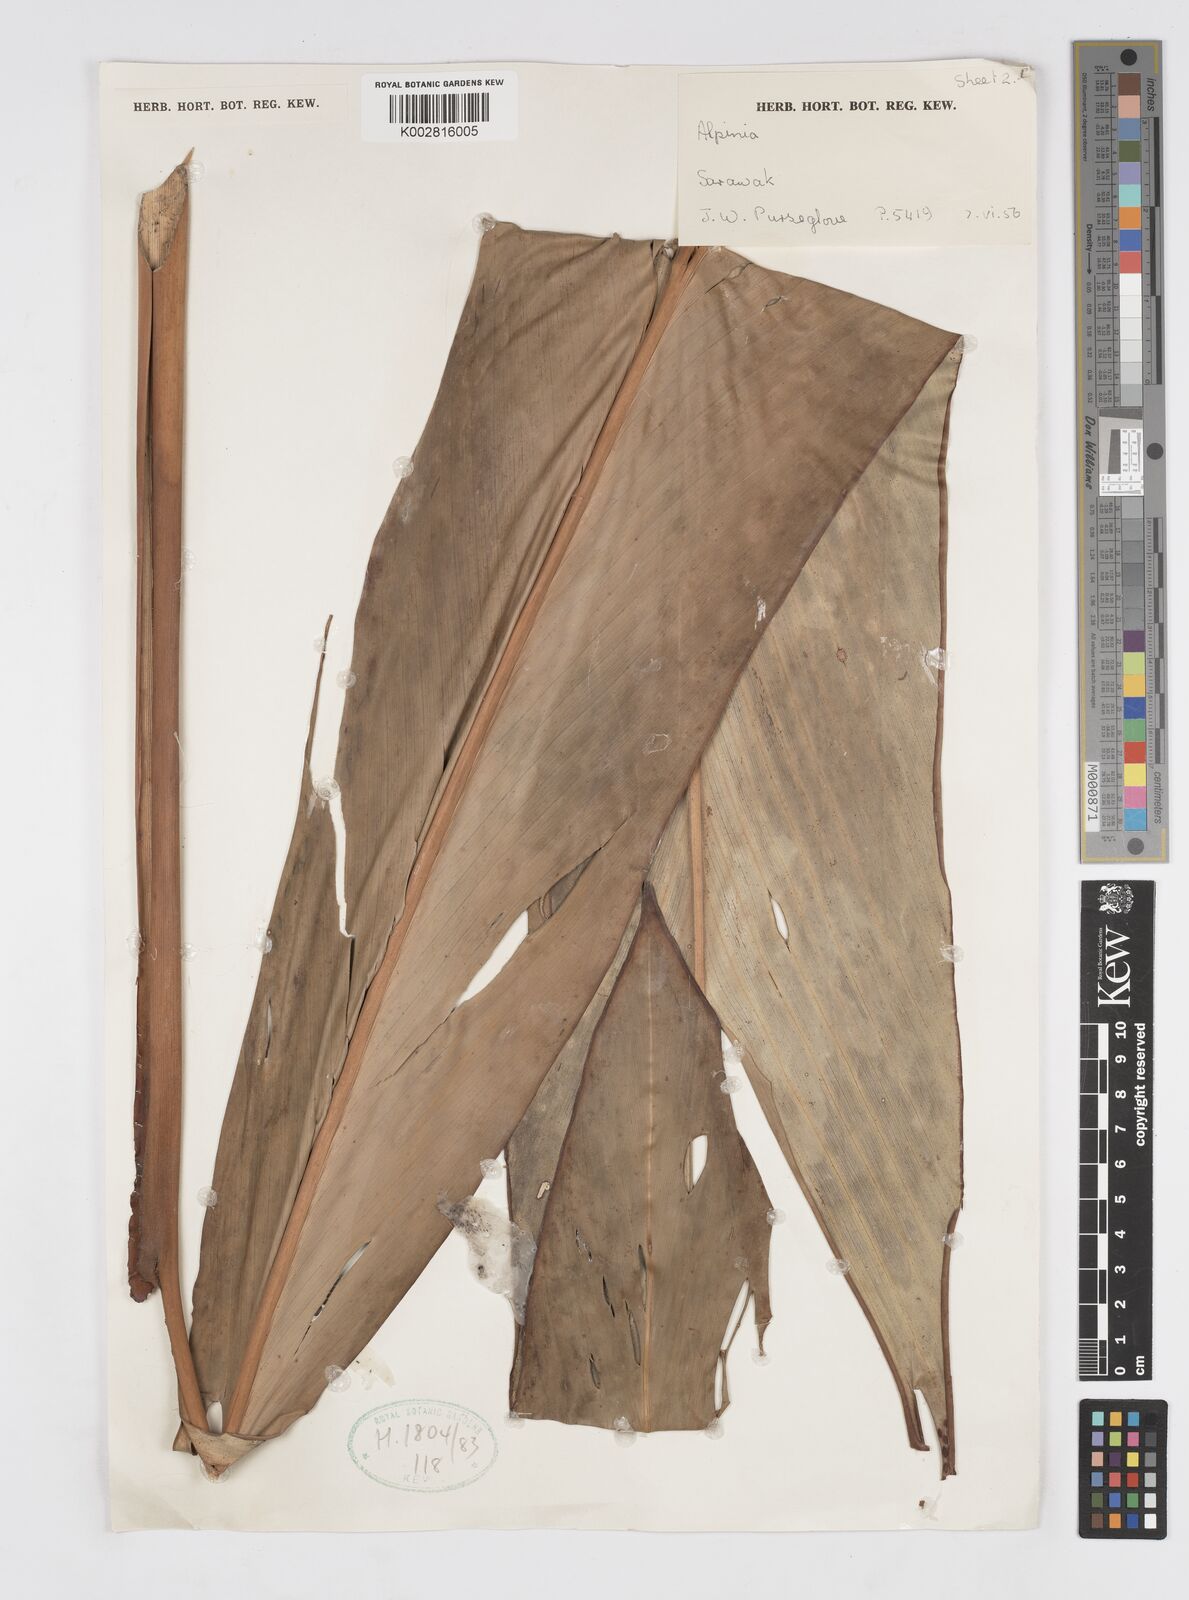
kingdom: Plantae
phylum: Tracheophyta
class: Liliopsida
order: Zingiberales
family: Zingiberaceae
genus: Alpinia
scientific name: Alpinia nieuwenhuizii
